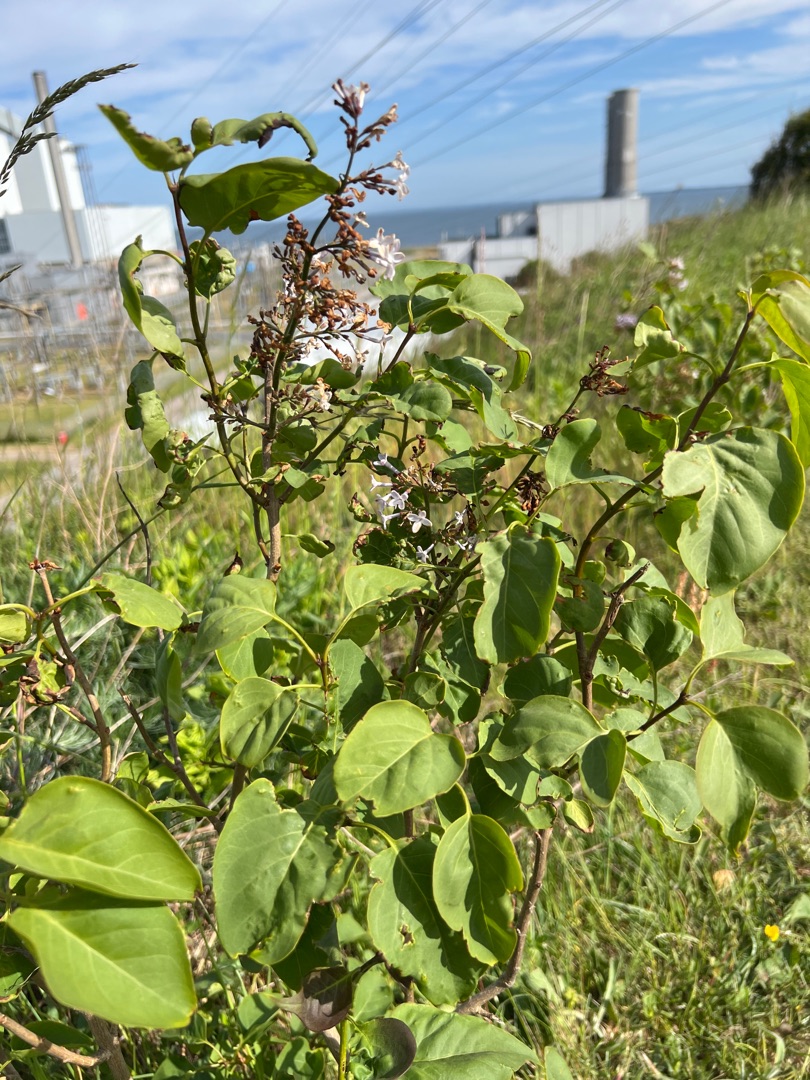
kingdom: Plantae
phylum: Tracheophyta
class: Magnoliopsida
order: Lamiales
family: Oleaceae
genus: Syringa
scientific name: Syringa vulgaris
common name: Syren
